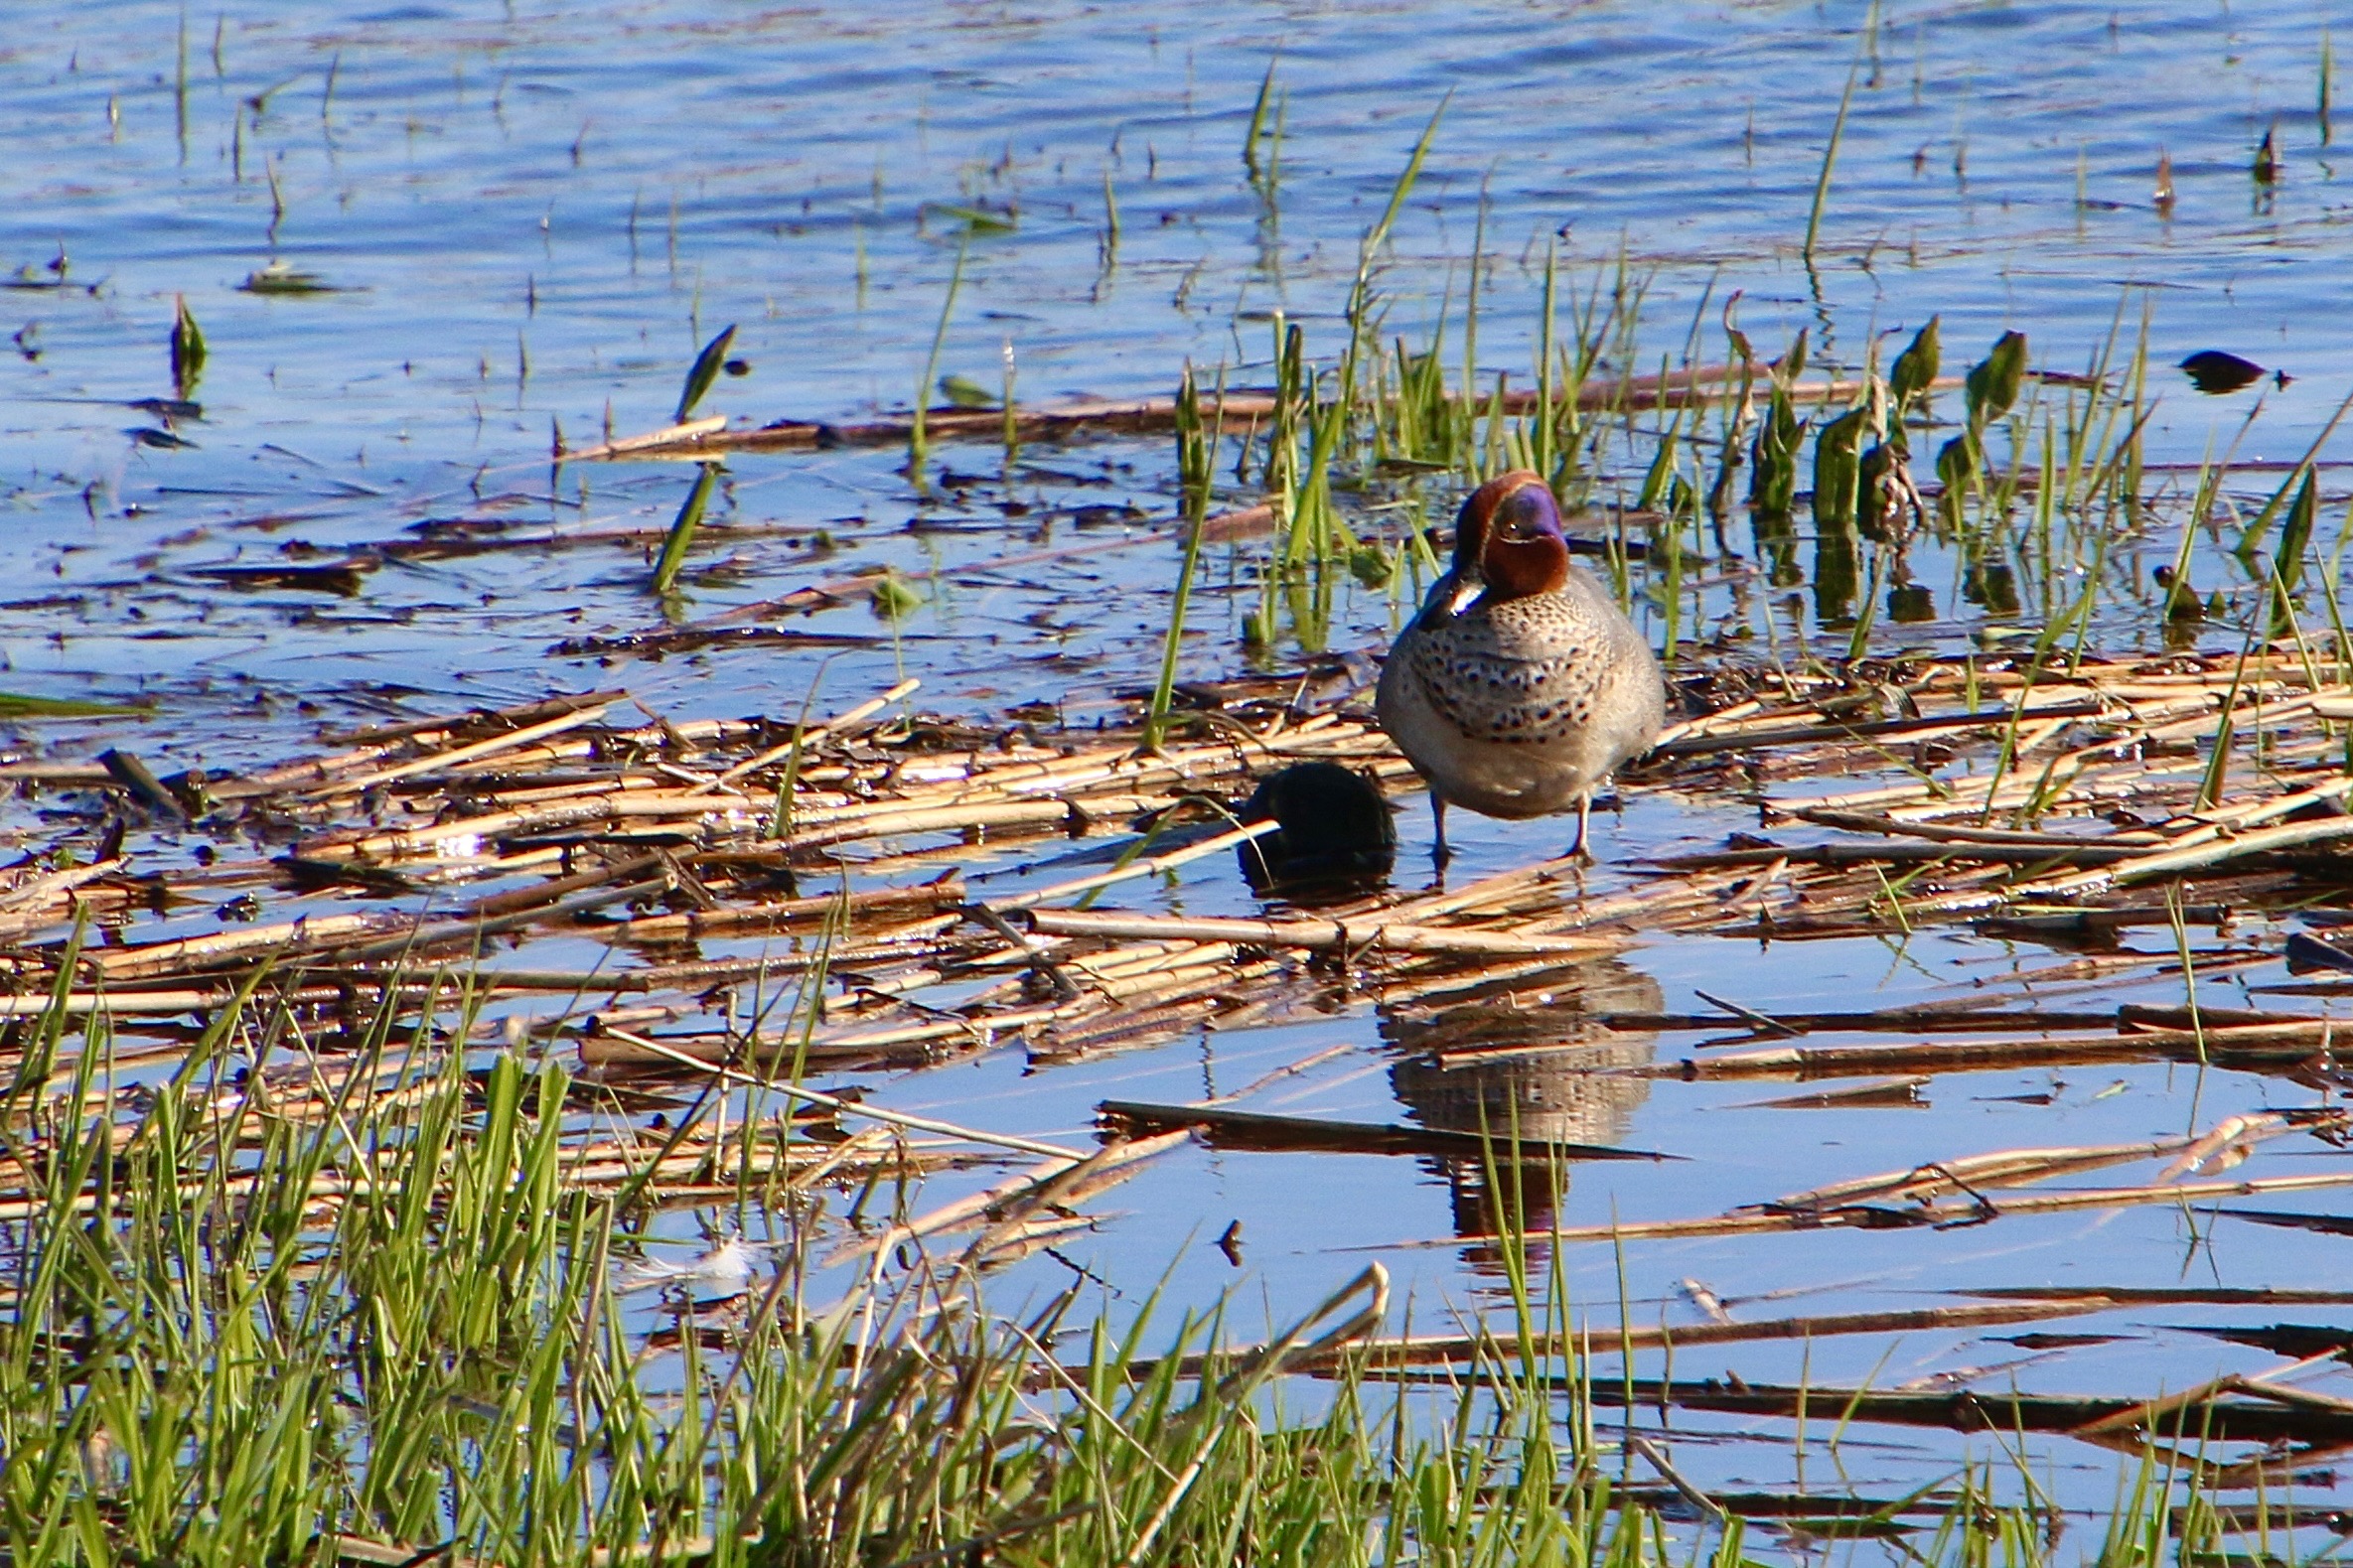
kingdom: Animalia
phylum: Chordata
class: Aves
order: Anseriformes
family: Anatidae
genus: Anas
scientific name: Anas crecca
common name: Krikand
